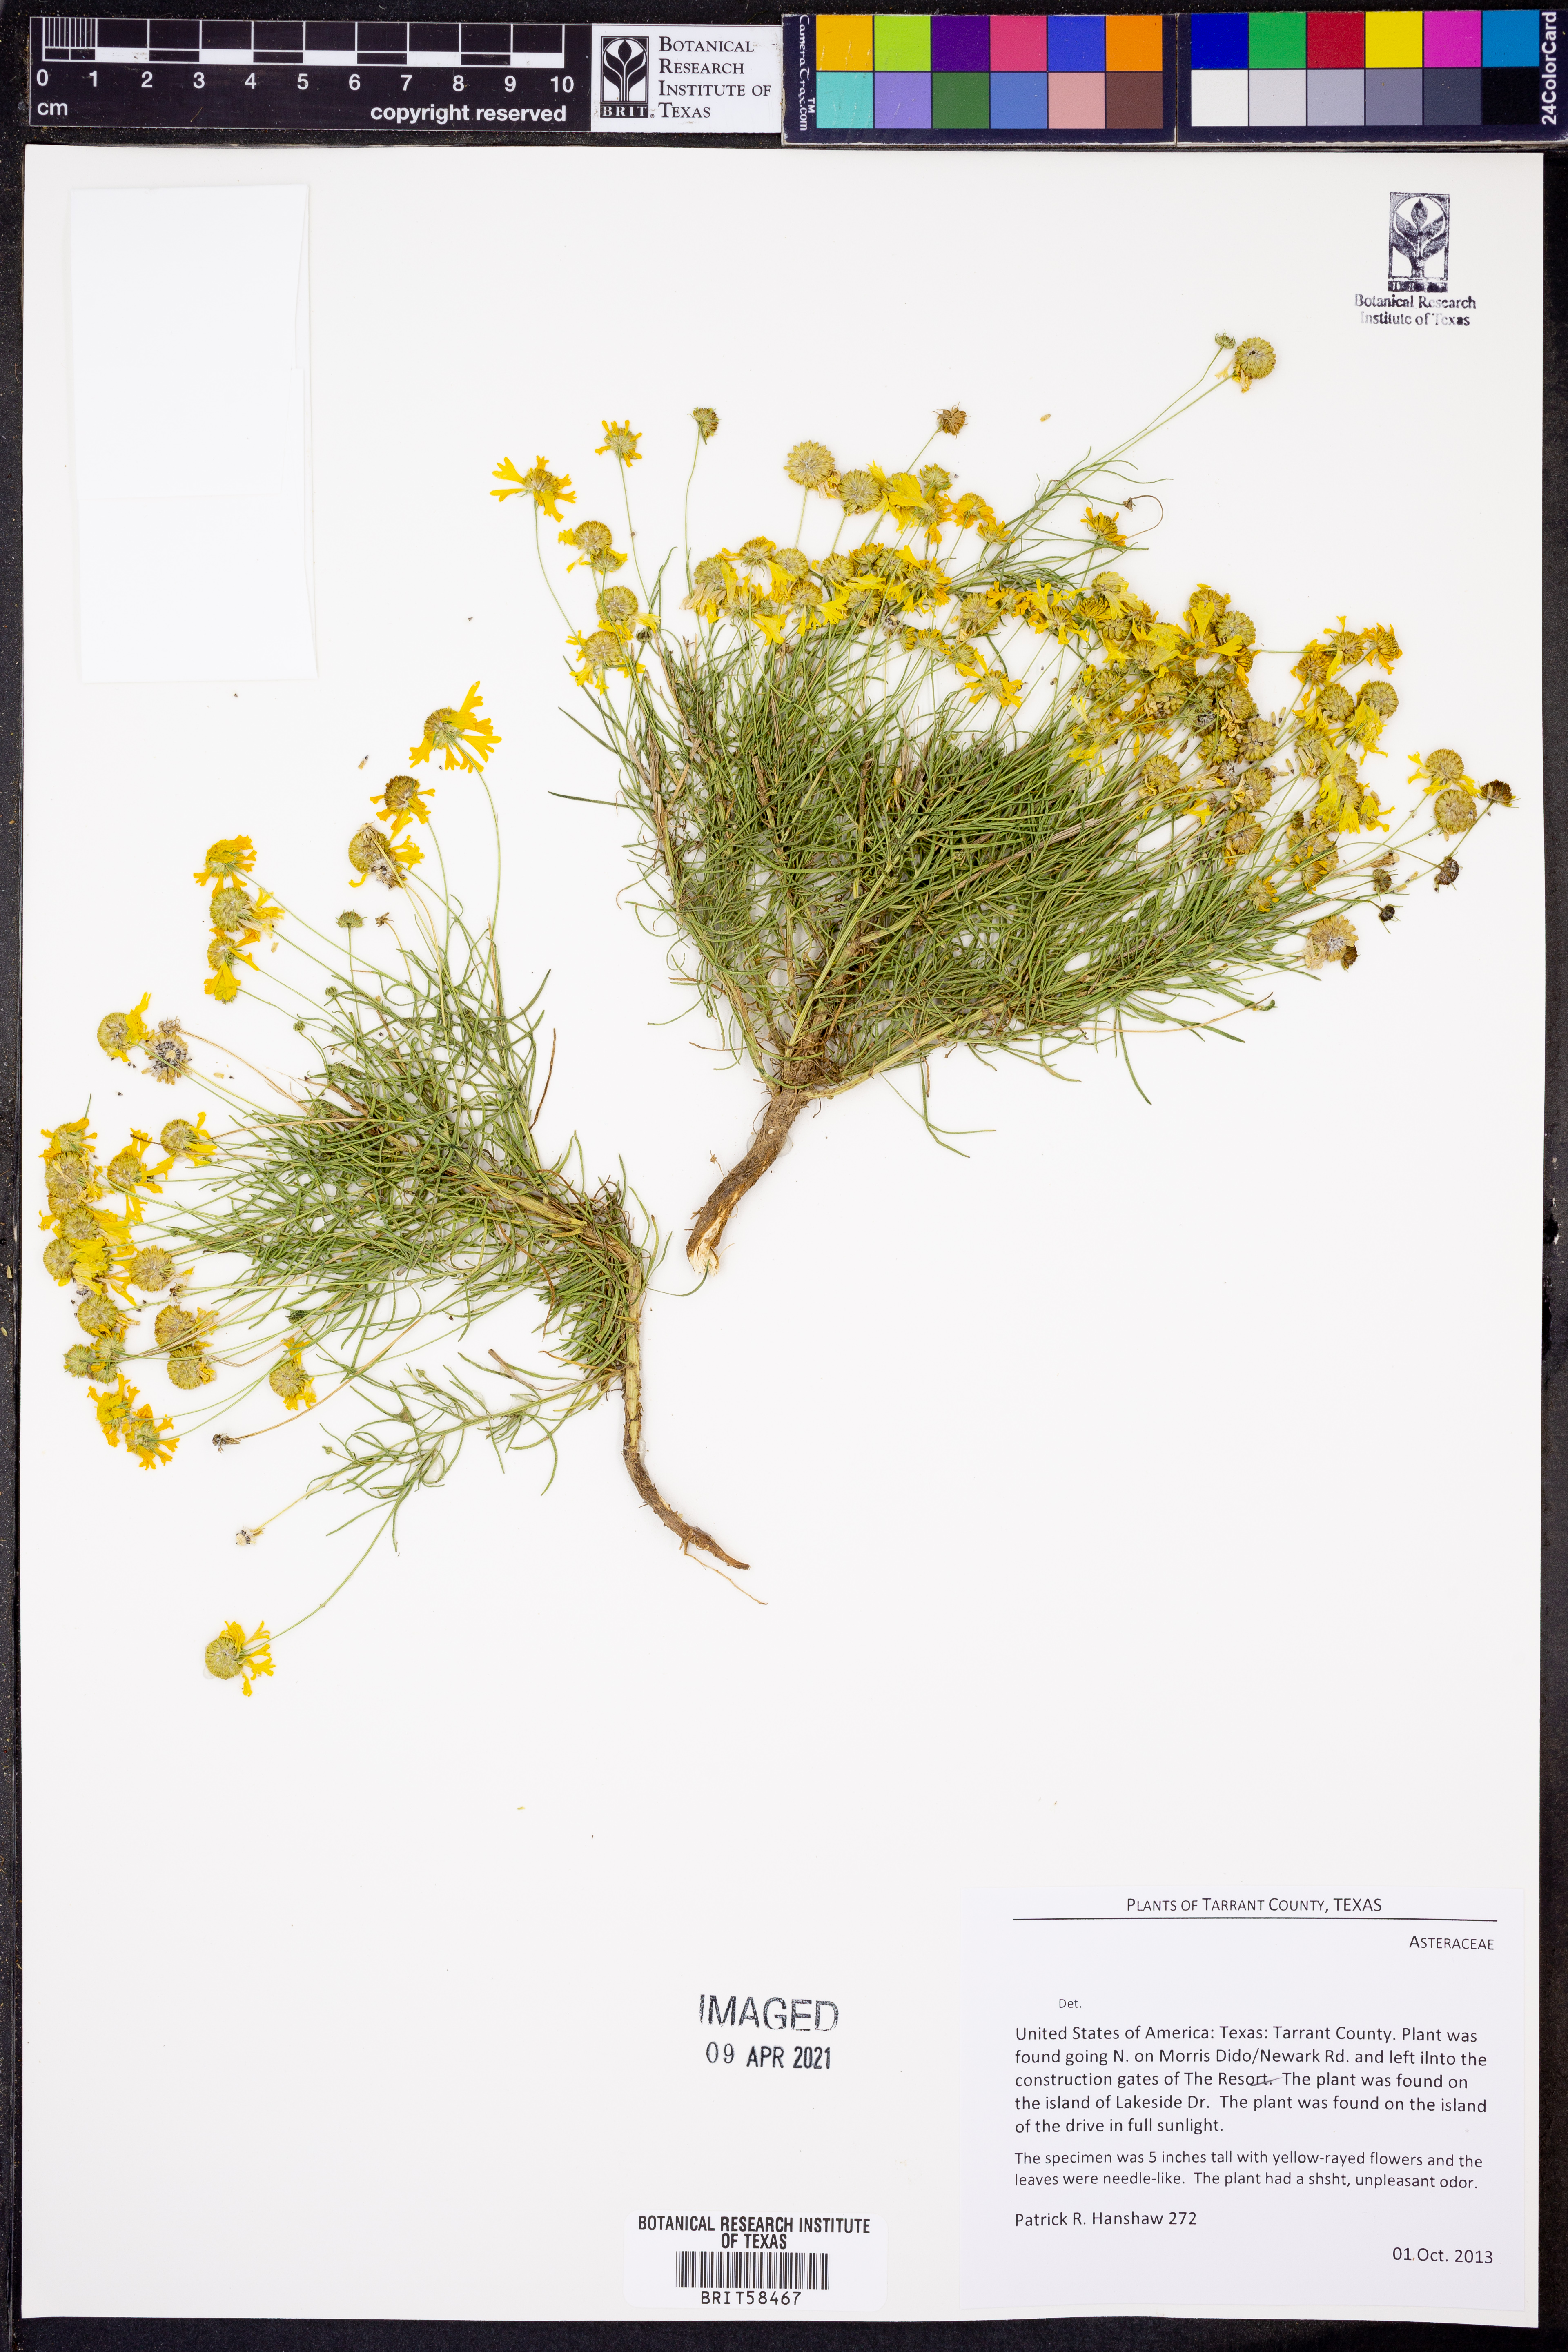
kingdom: Plantae
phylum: Tracheophyta
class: Magnoliopsida
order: Asterales
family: Asteraceae
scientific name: Asteraceae
